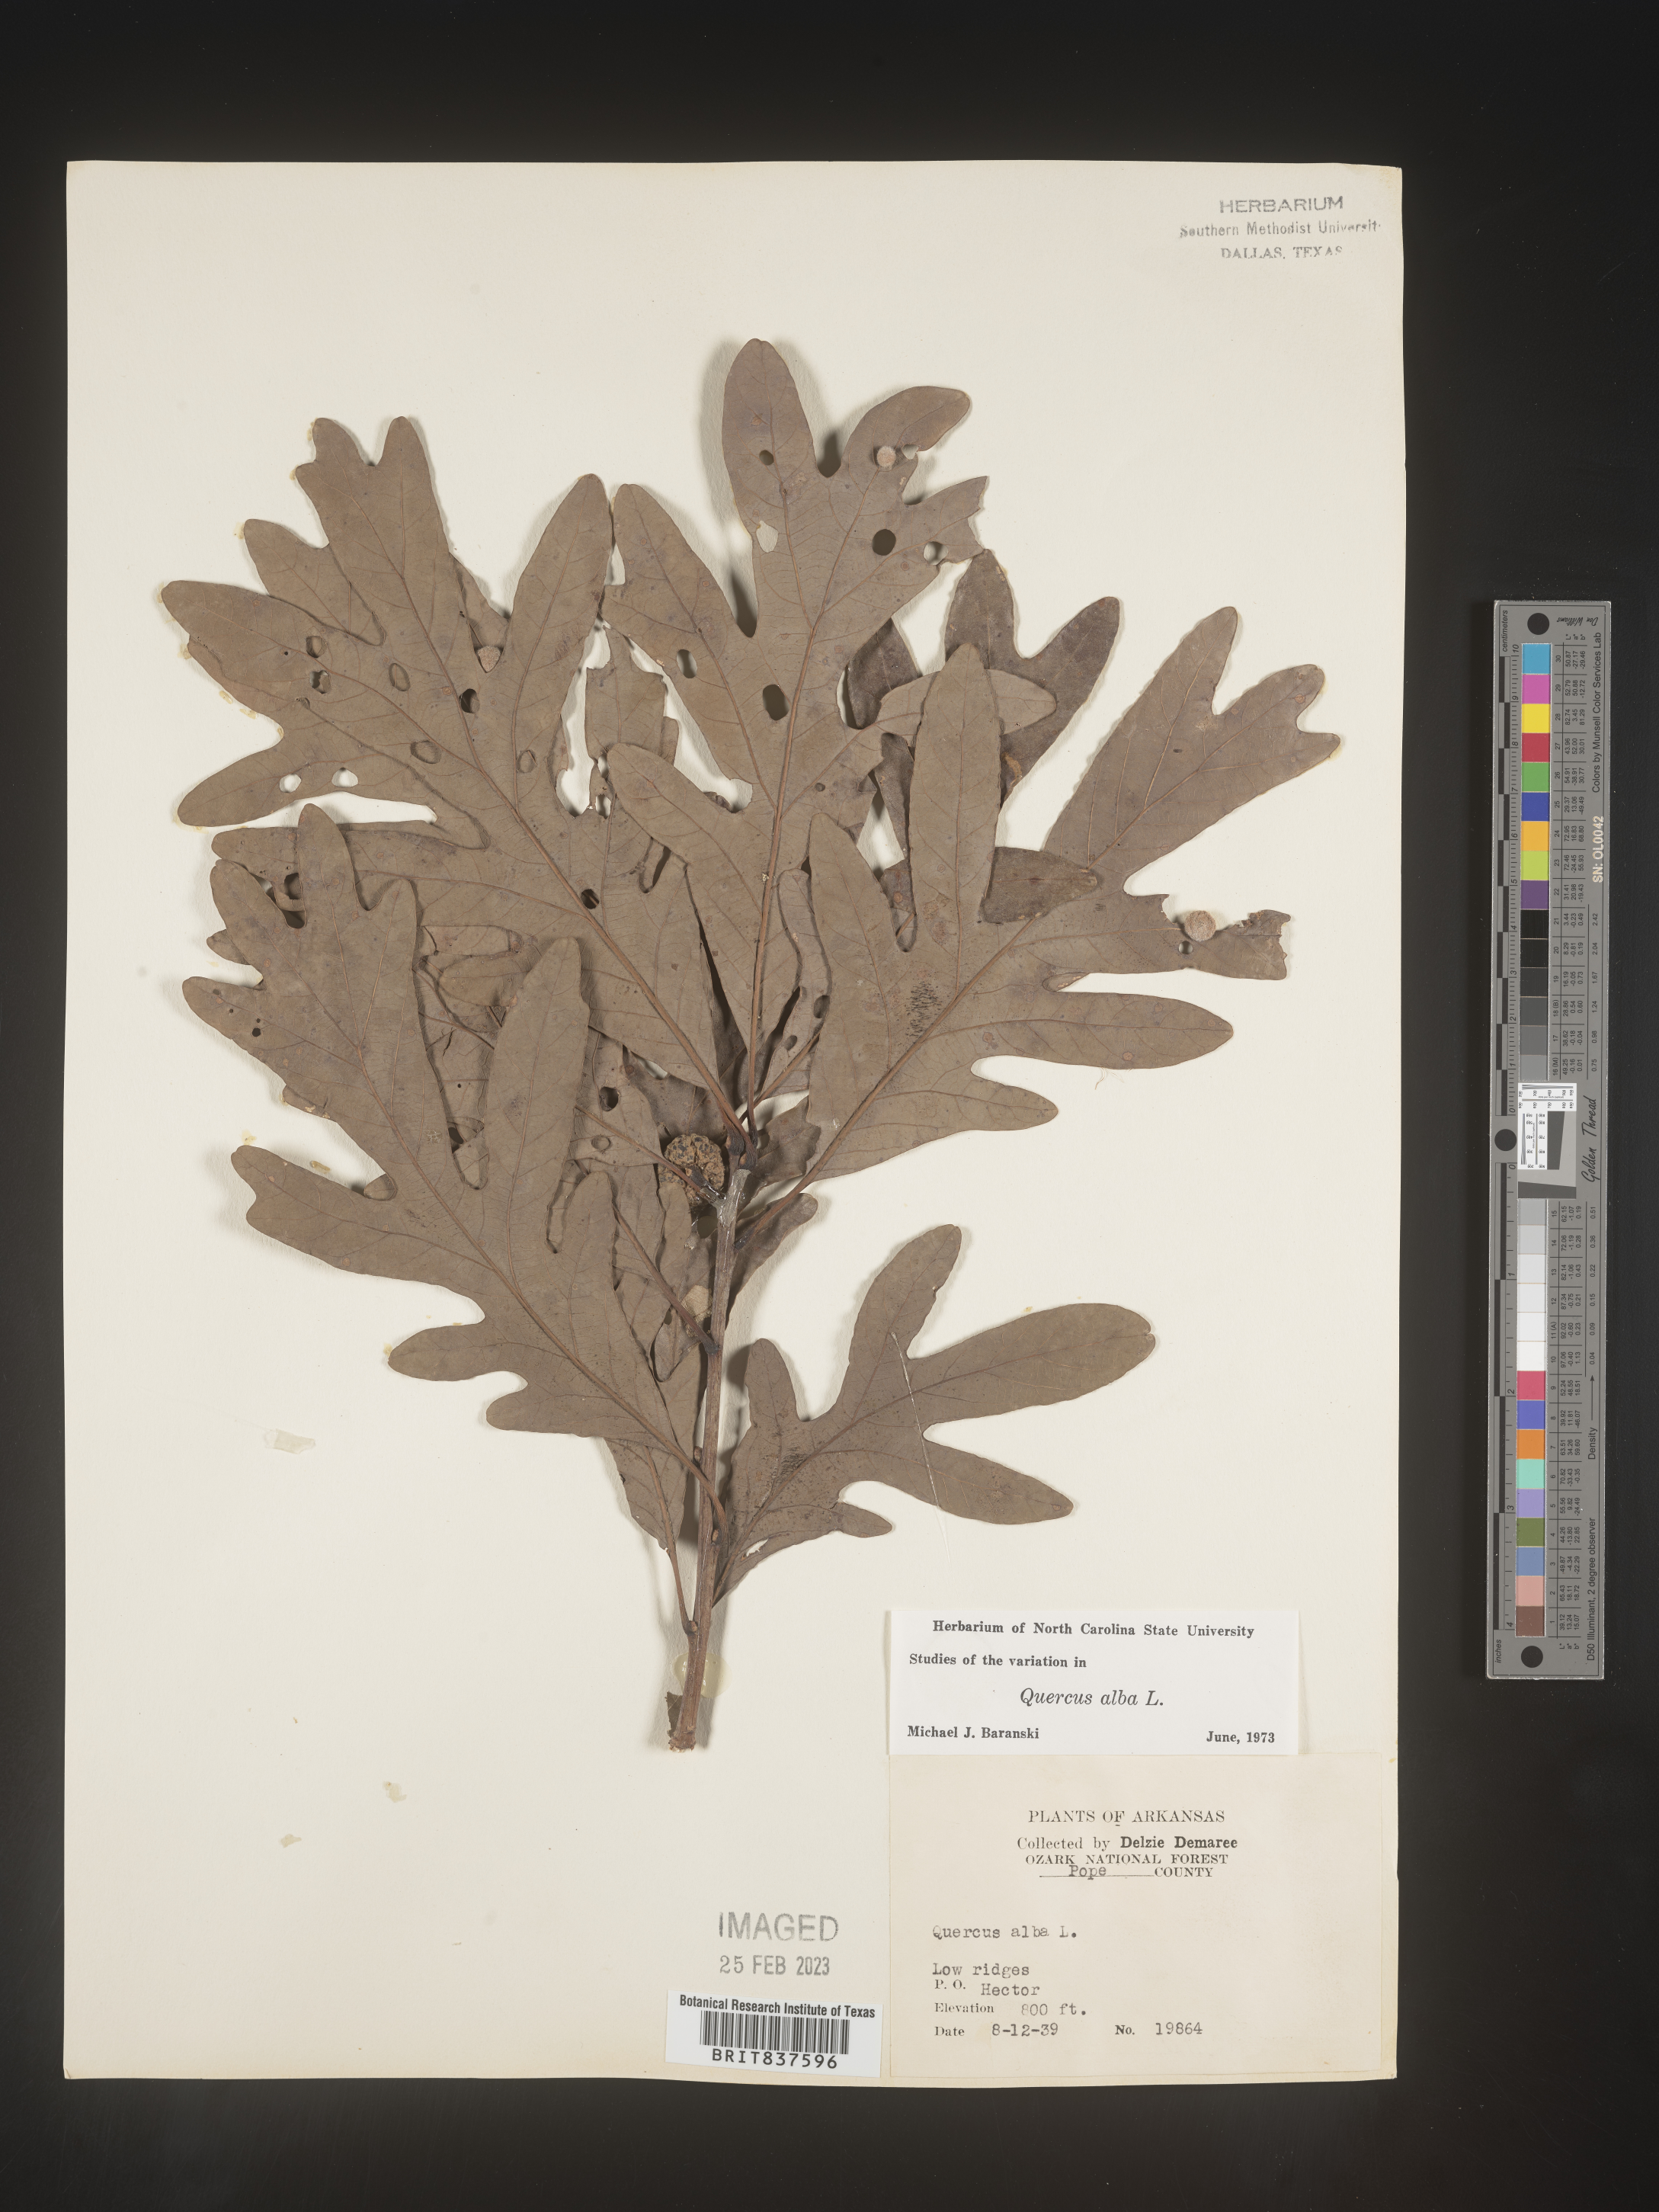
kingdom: Plantae
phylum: Tracheophyta
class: Magnoliopsida
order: Fagales
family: Fagaceae
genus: Quercus
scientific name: Quercus alba
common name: White oak
